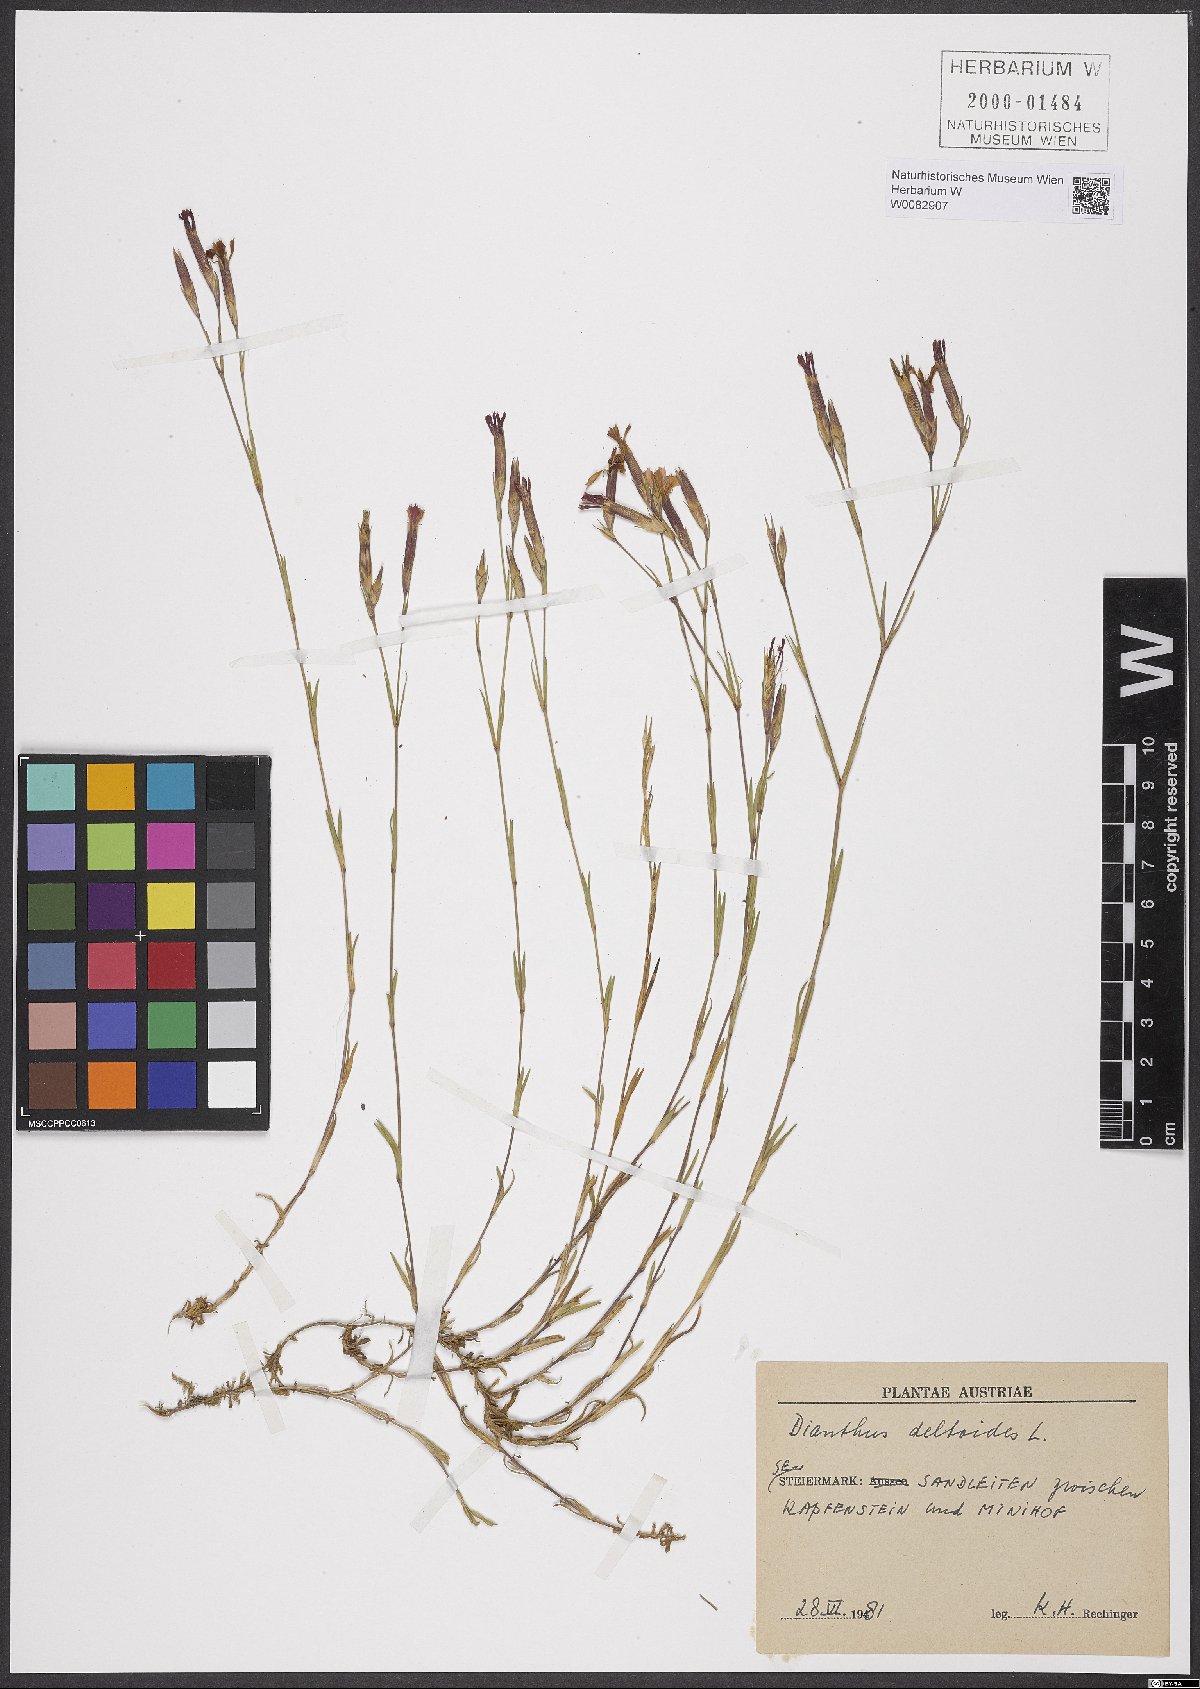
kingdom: Plantae
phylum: Tracheophyta
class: Magnoliopsida
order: Caryophyllales
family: Caryophyllaceae
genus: Dianthus
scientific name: Dianthus deltoides
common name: Maiden pink
